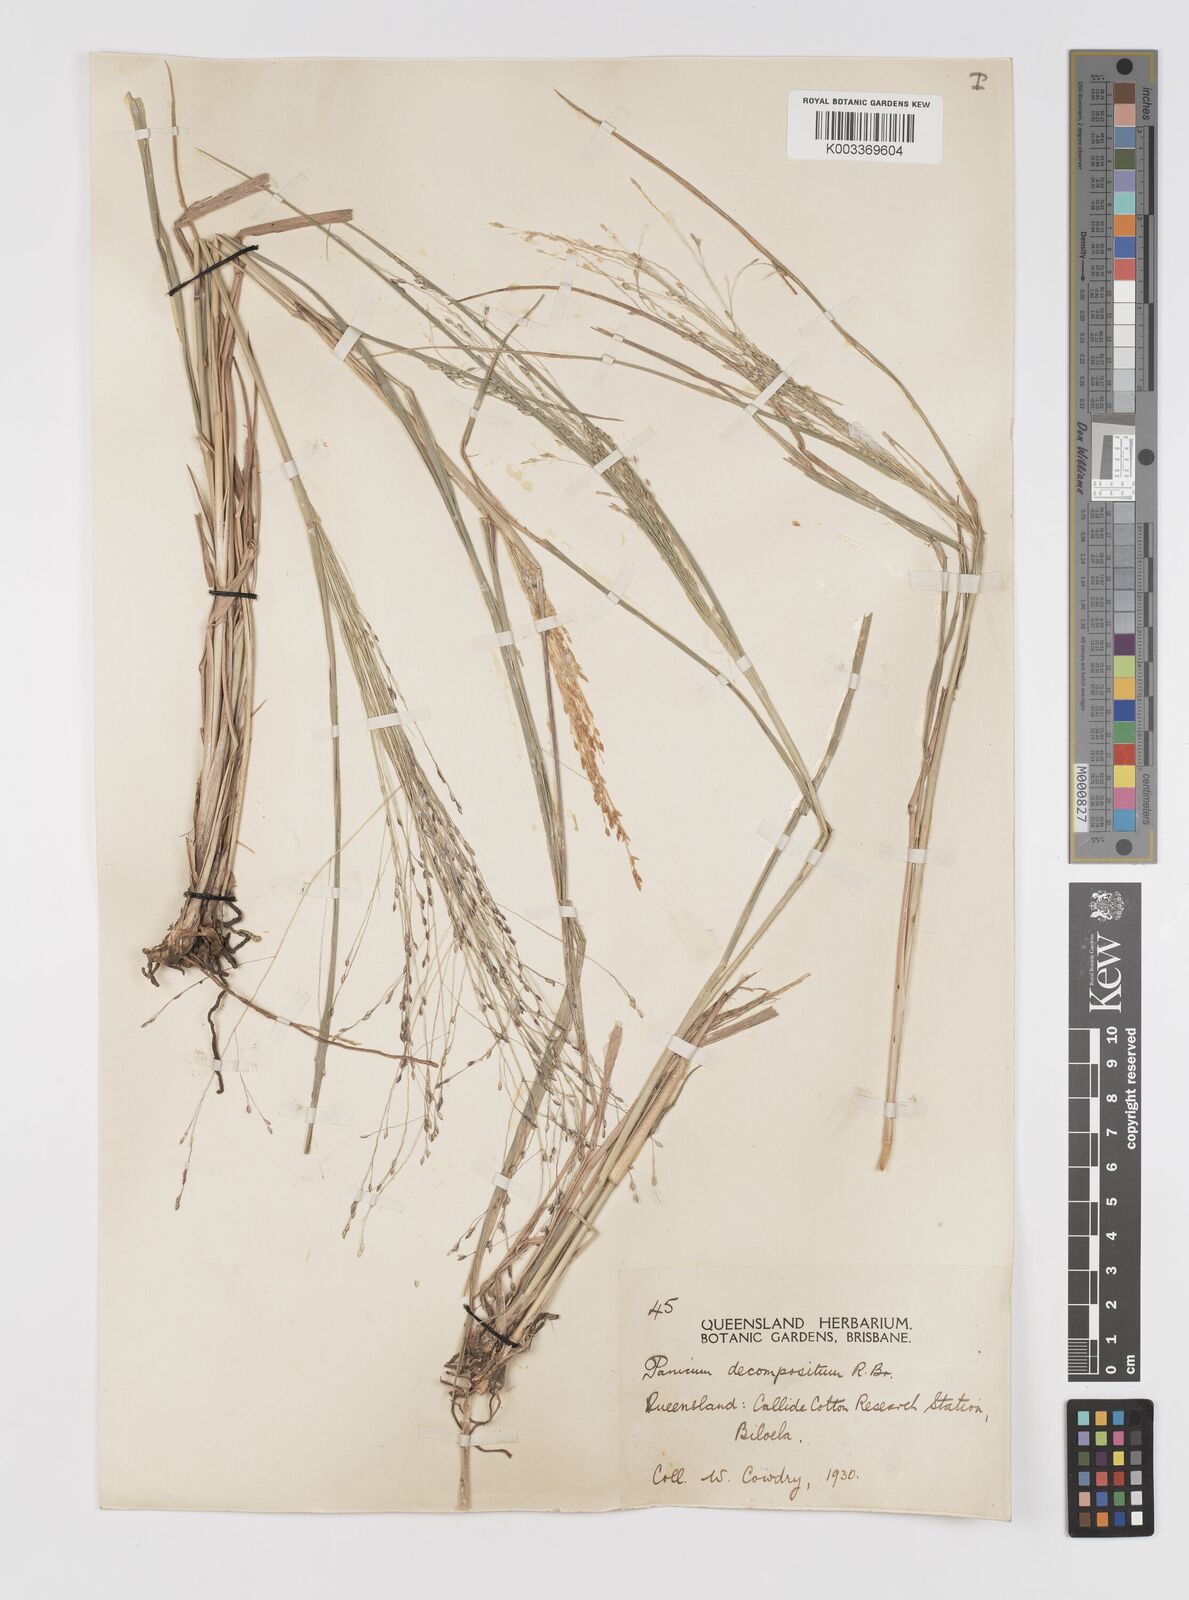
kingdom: Plantae
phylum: Tracheophyta
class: Liliopsida
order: Poales
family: Poaceae
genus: Panicum
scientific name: Panicum decompositum
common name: Australian millet
